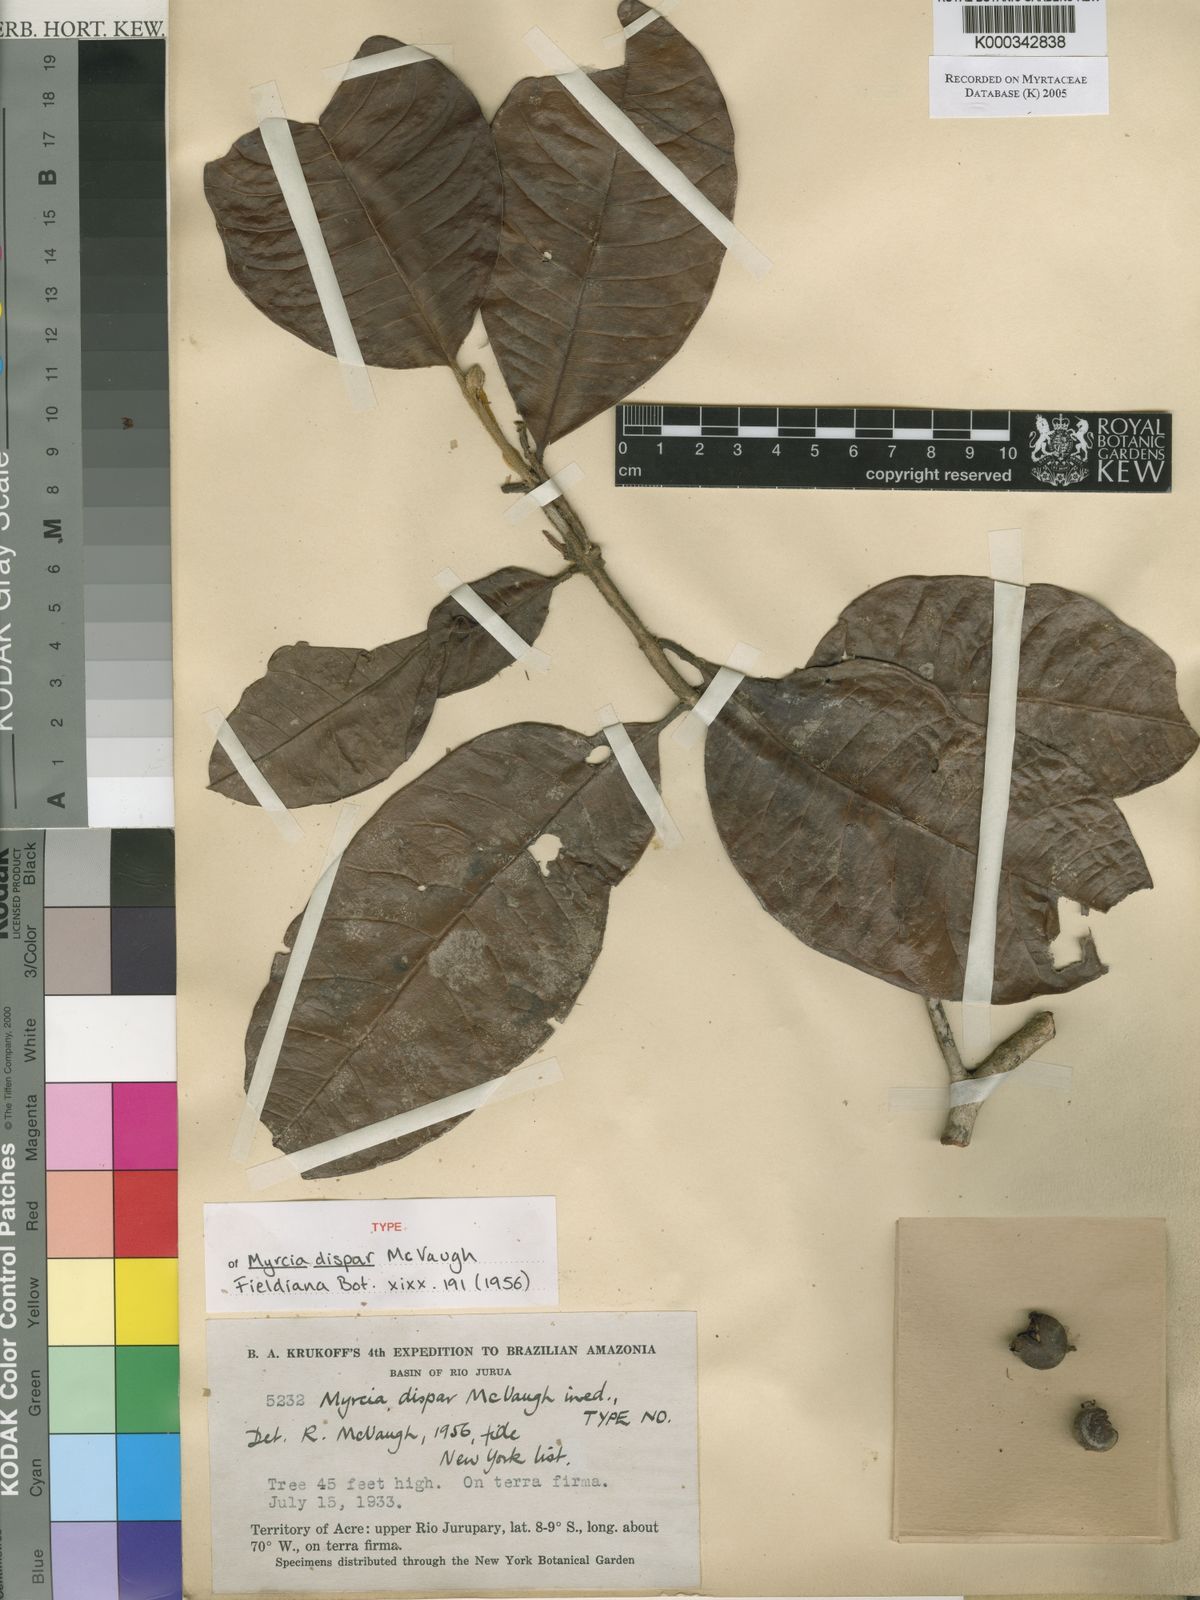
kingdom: Plantae
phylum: Tracheophyta
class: Magnoliopsida
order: Myrtales
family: Myrtaceae
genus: Myrcia
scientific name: Myrcia dispar
